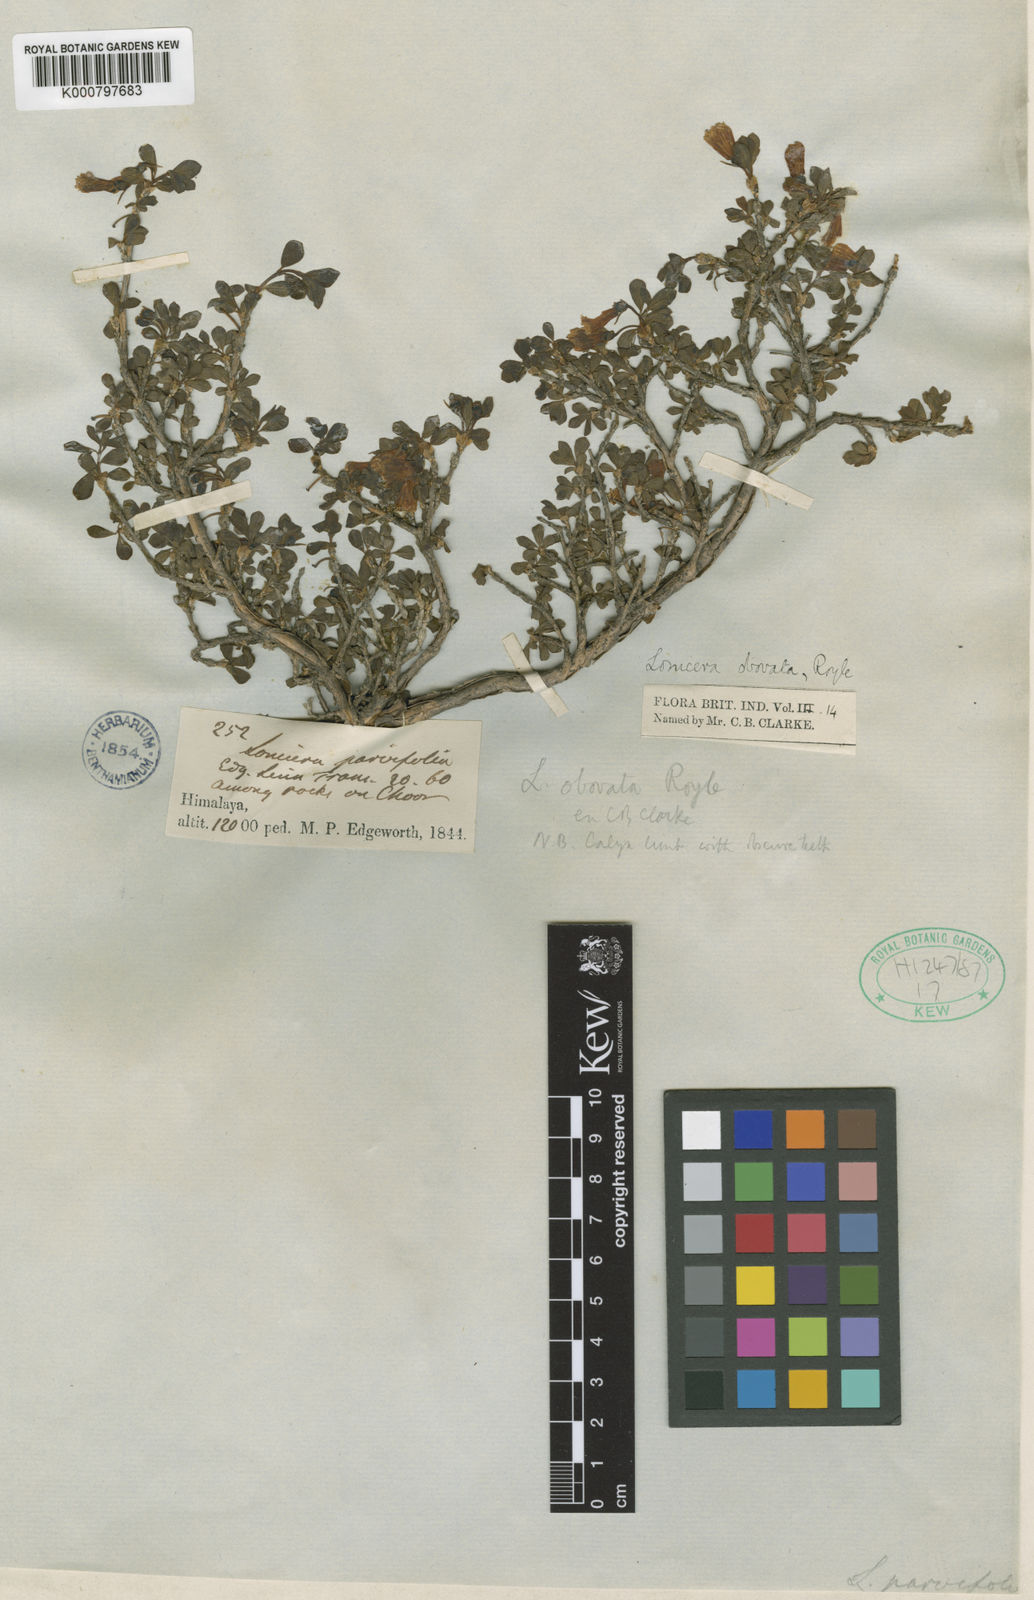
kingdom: Plantae
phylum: Tracheophyta
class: Magnoliopsida
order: Dipsacales
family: Caprifoliaceae
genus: Lonicera
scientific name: Lonicera obovata
